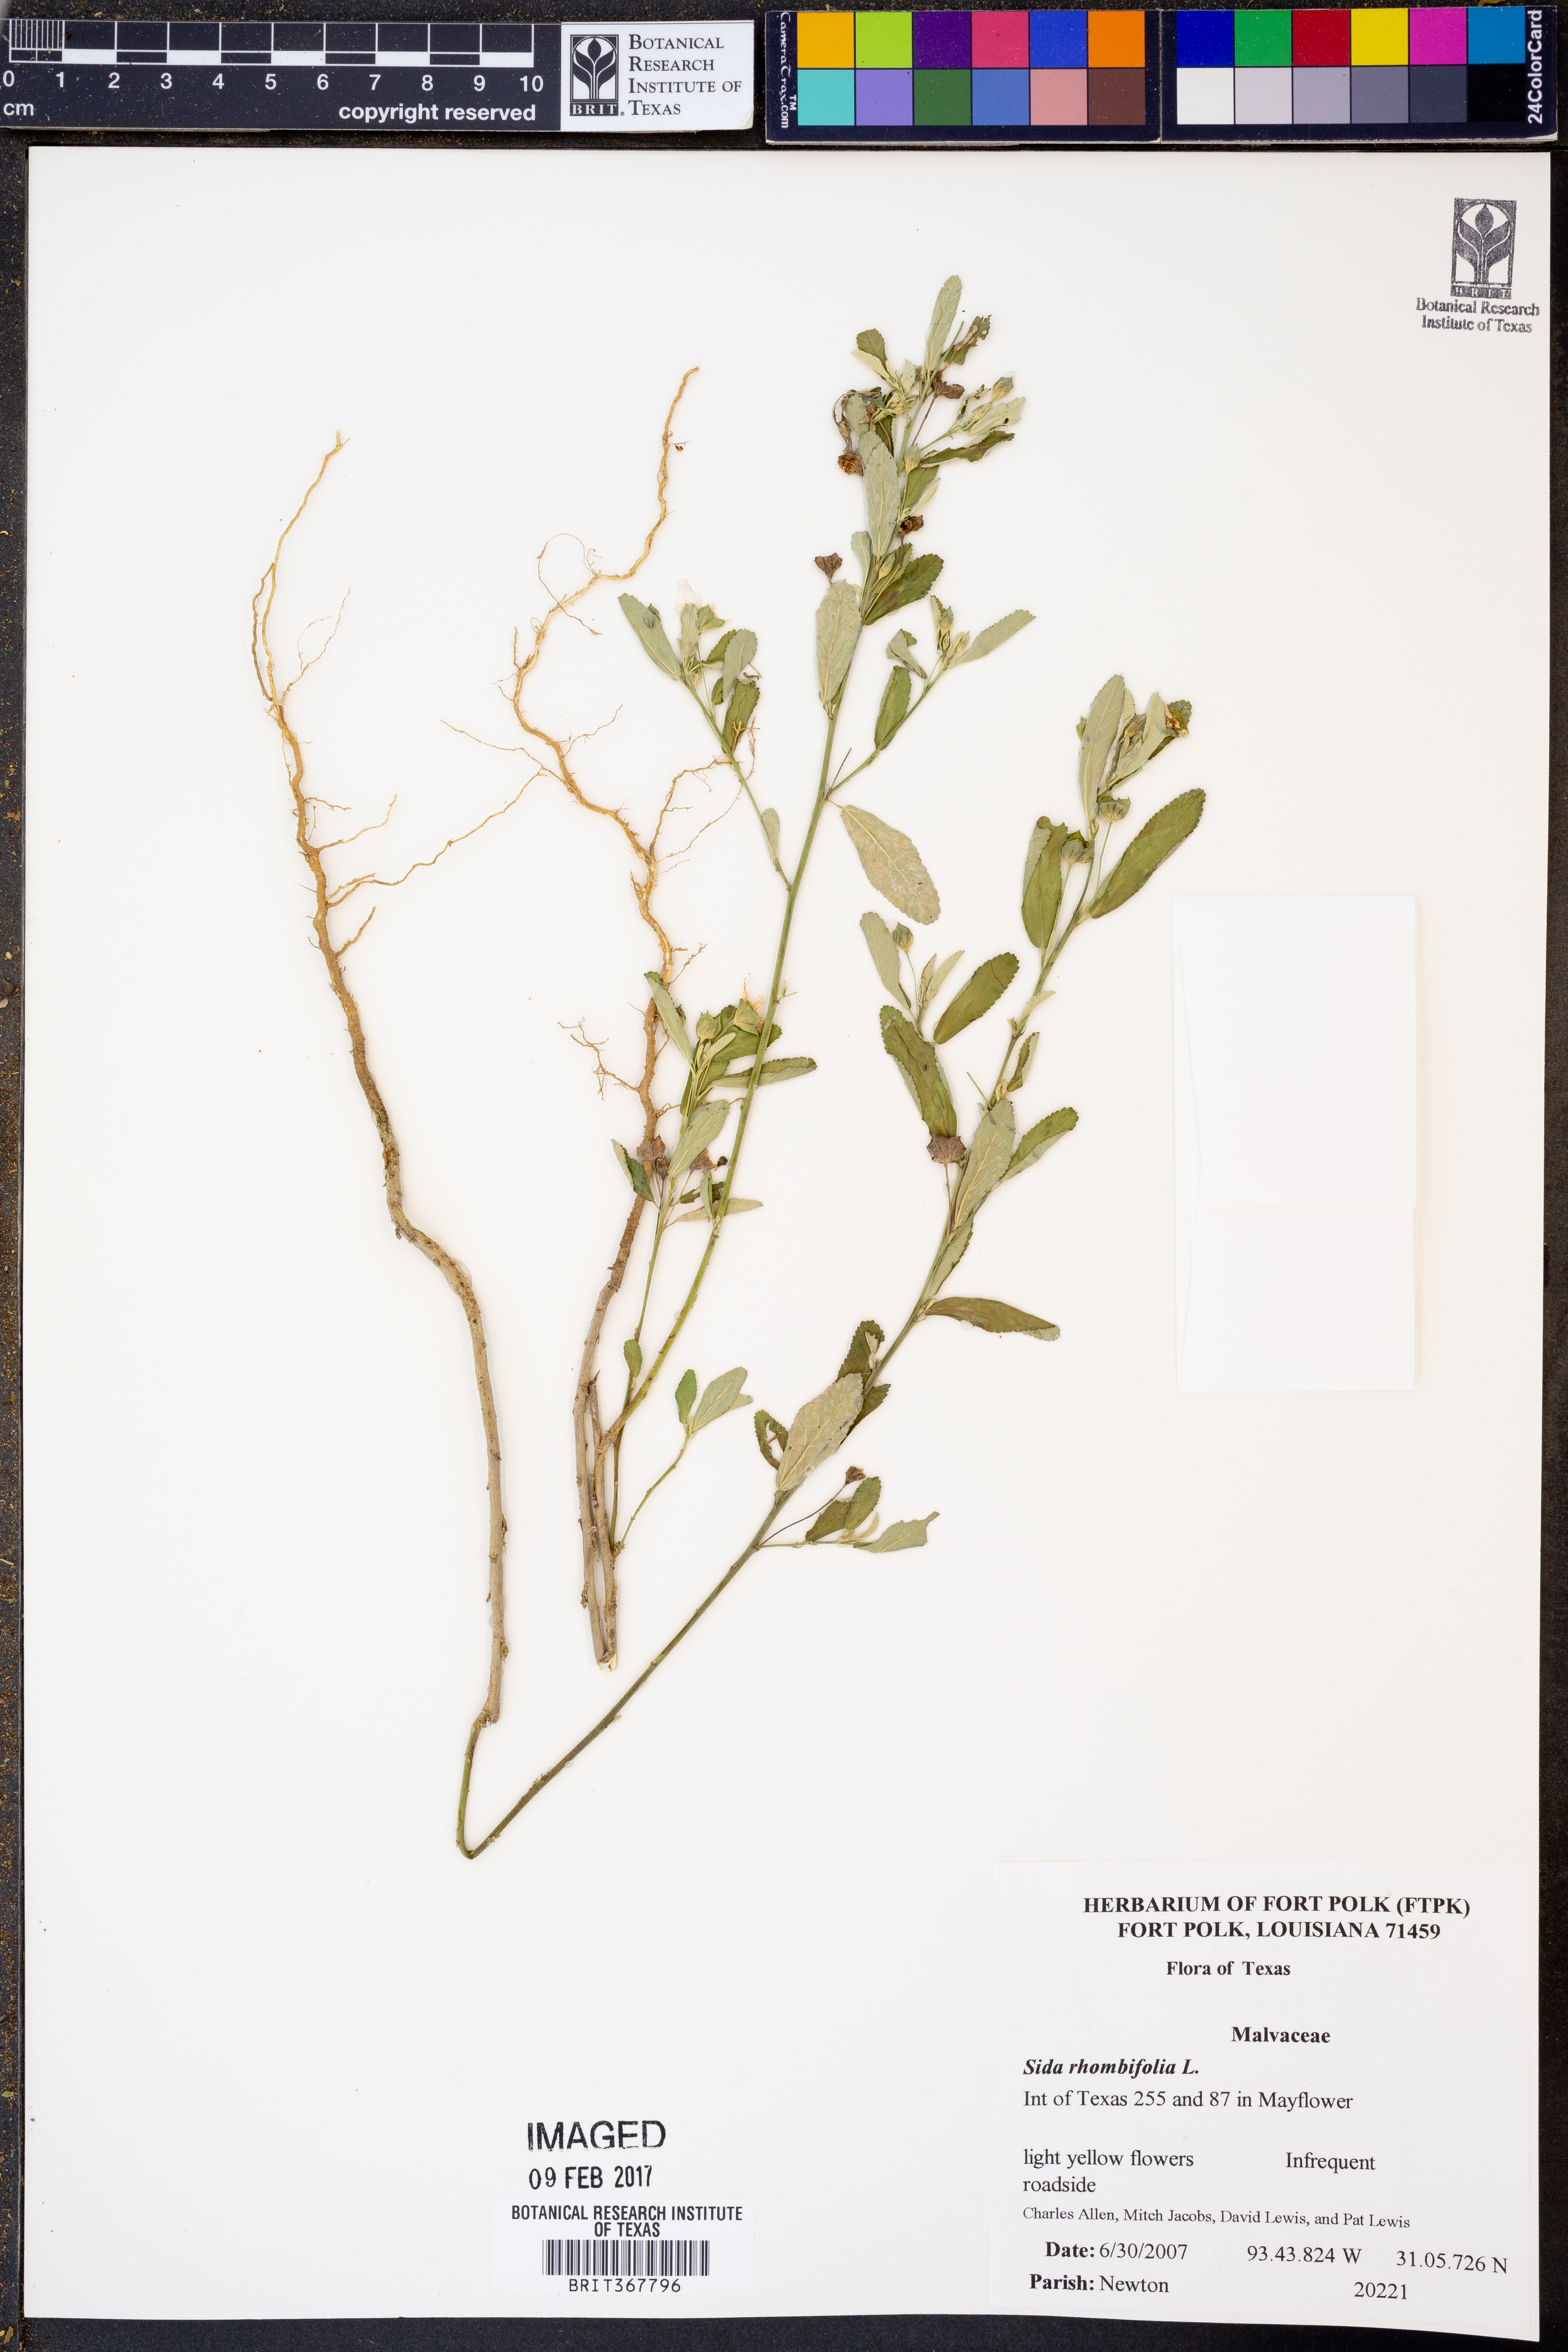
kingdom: Plantae
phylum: Tracheophyta
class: Magnoliopsida
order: Malvales
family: Malvaceae
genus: Sida
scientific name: Sida rhombifolia
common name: Queensland-hemp
